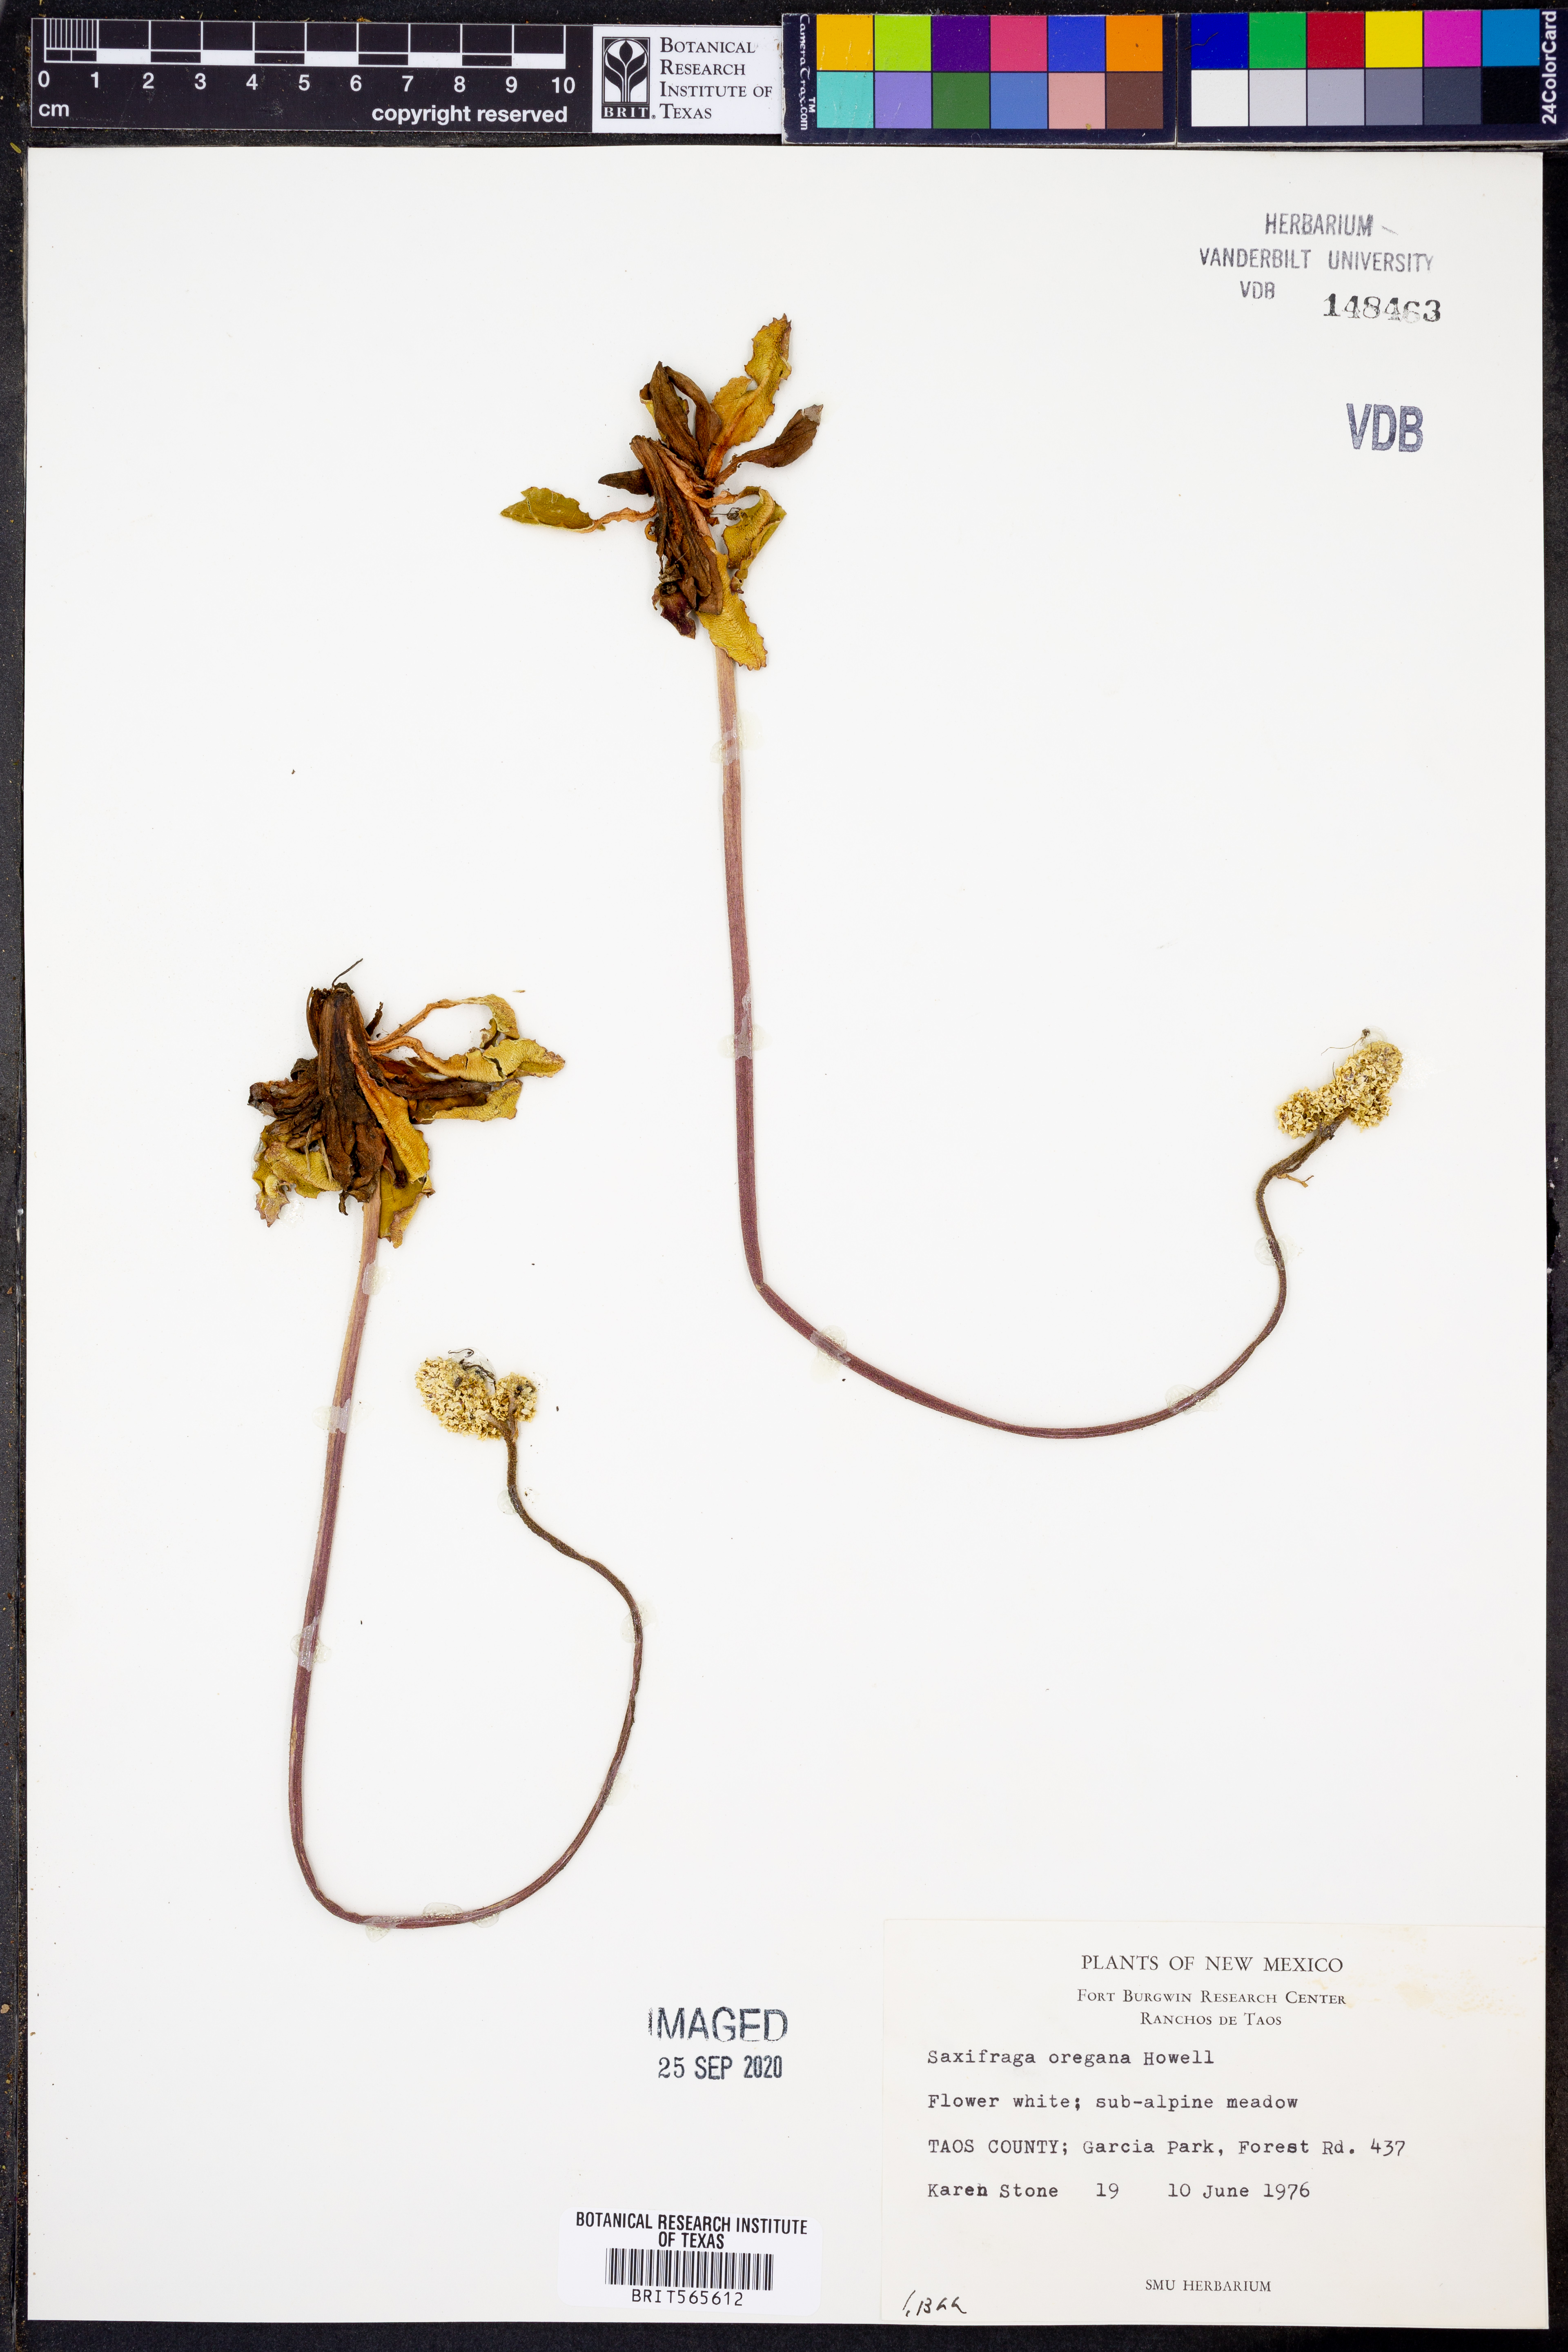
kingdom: Plantae
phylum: Tracheophyta
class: Magnoliopsida
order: Saxifragales
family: Saxifragaceae
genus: Micranthes
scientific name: Micranthes oregana
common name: Bog saxifrage
